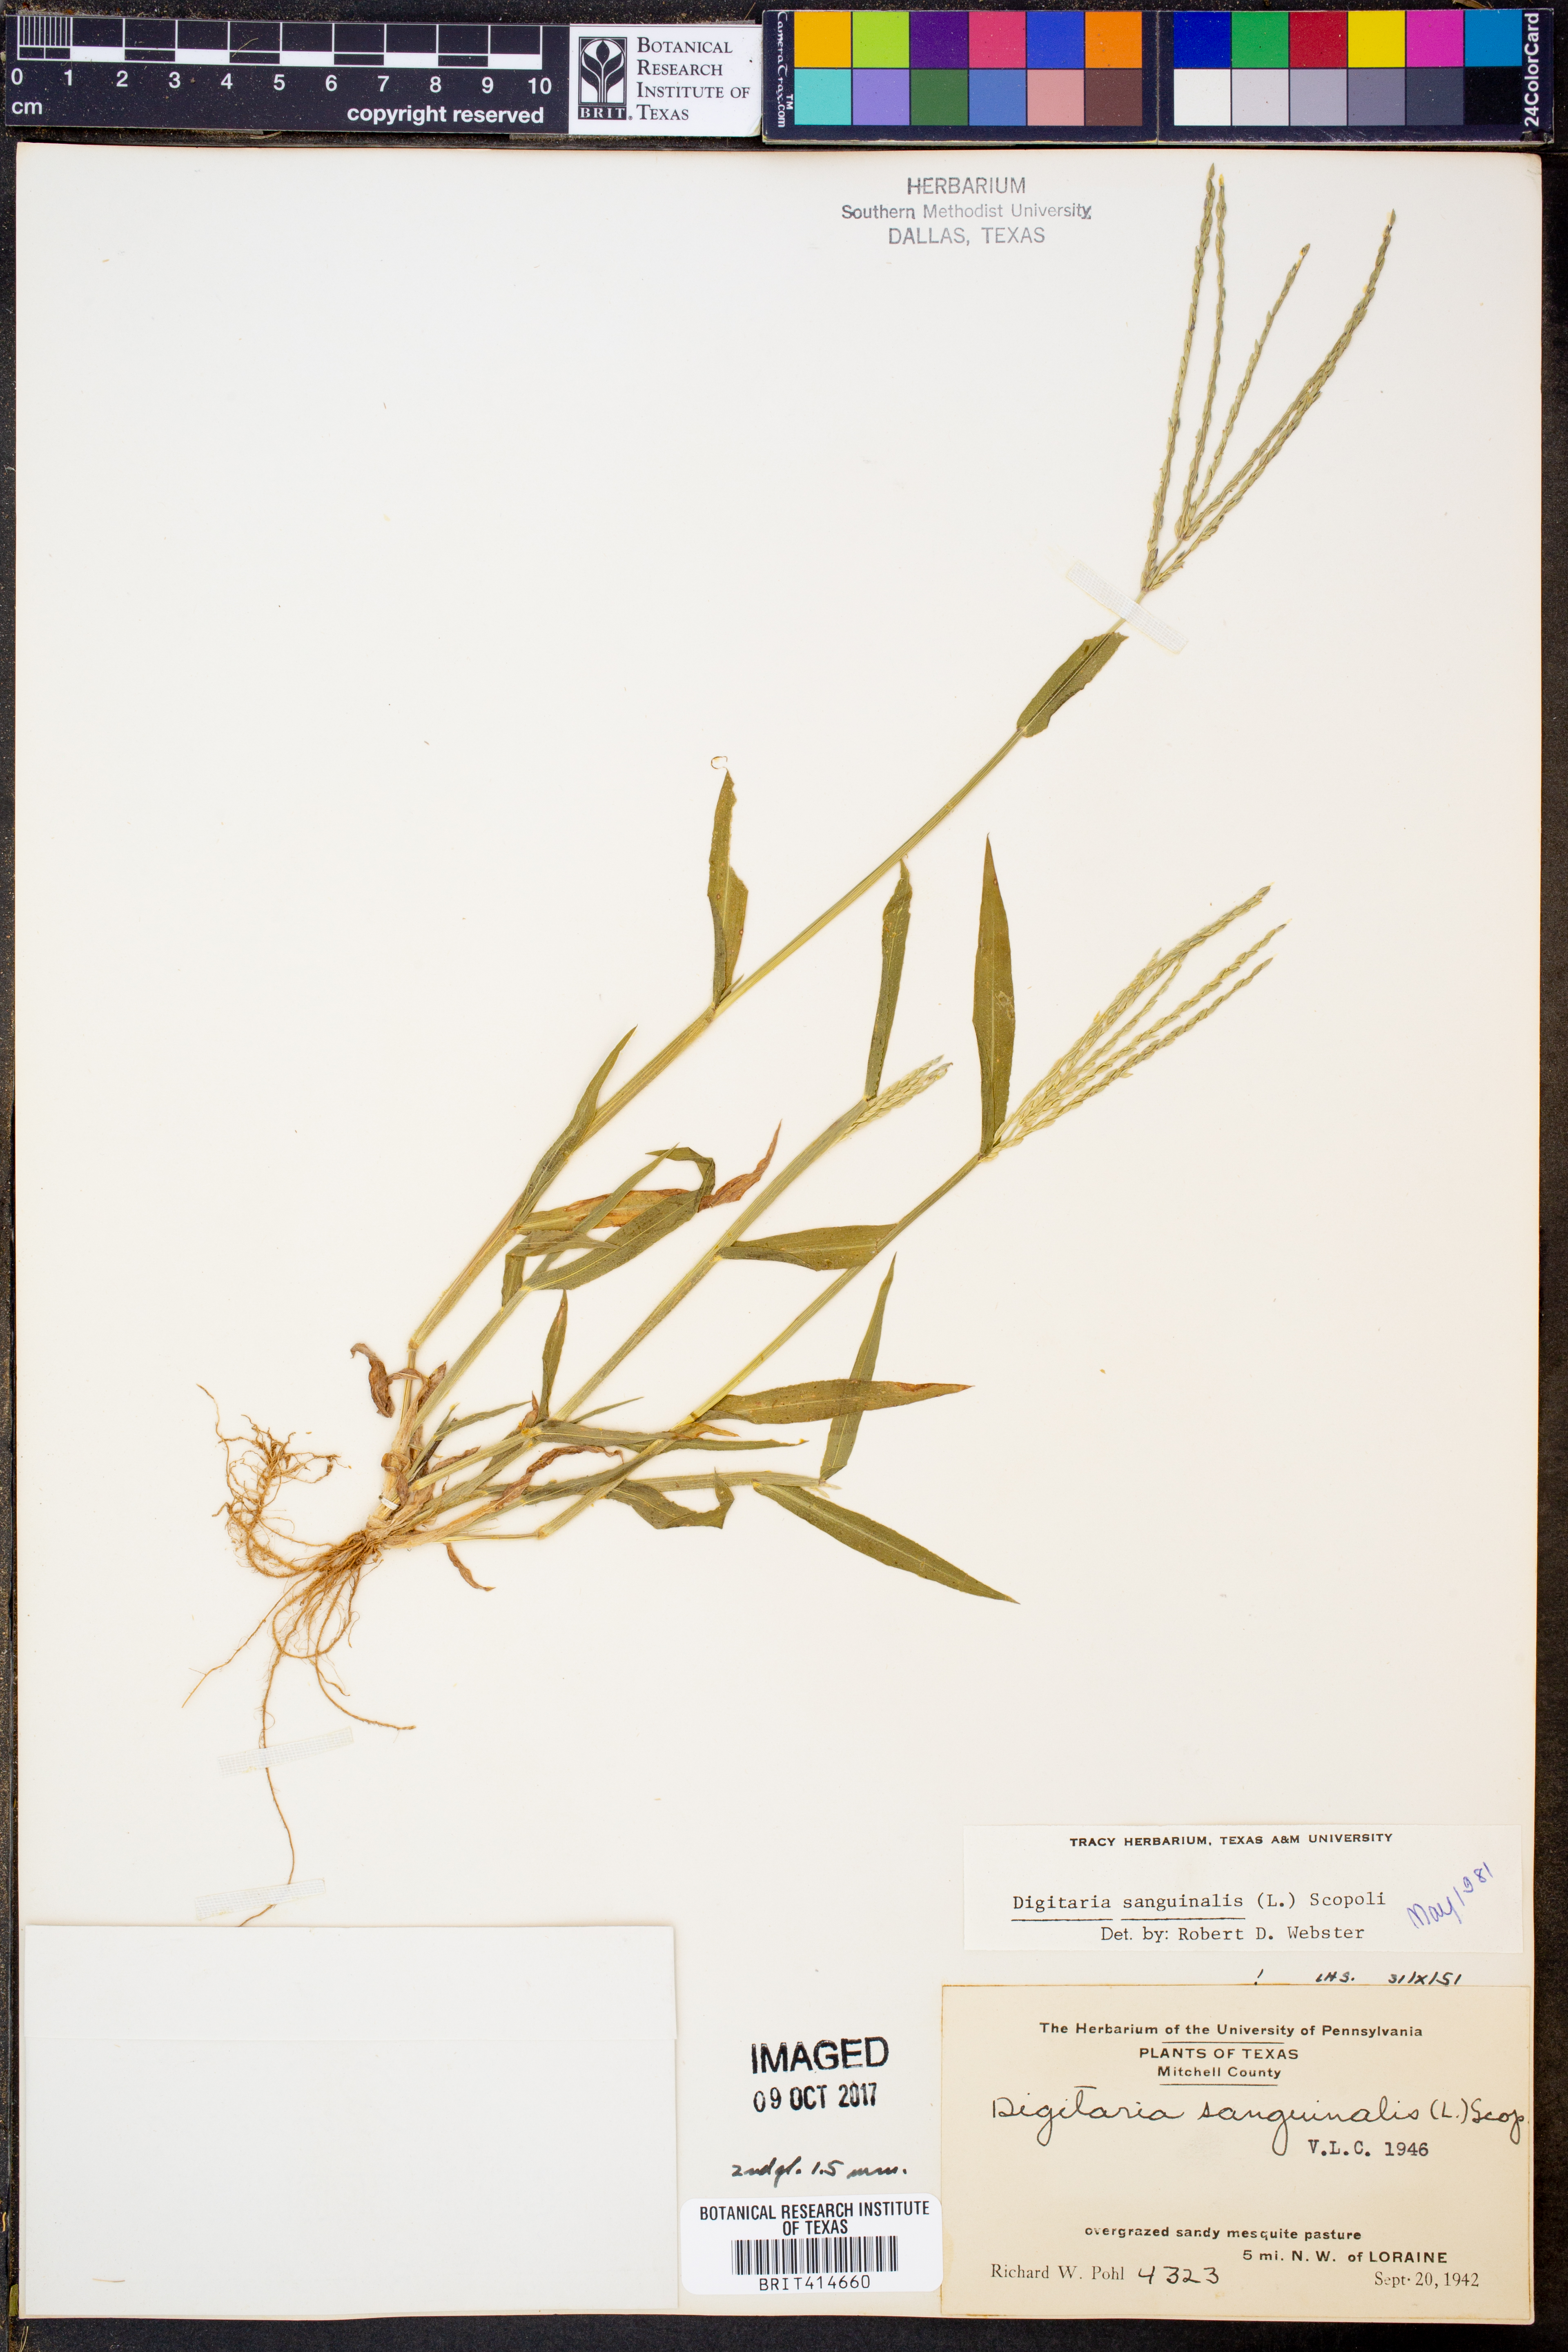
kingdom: Plantae
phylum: Tracheophyta
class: Liliopsida
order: Poales
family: Poaceae
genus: Digitaria
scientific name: Digitaria sanguinalis
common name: Hairy crabgrass
